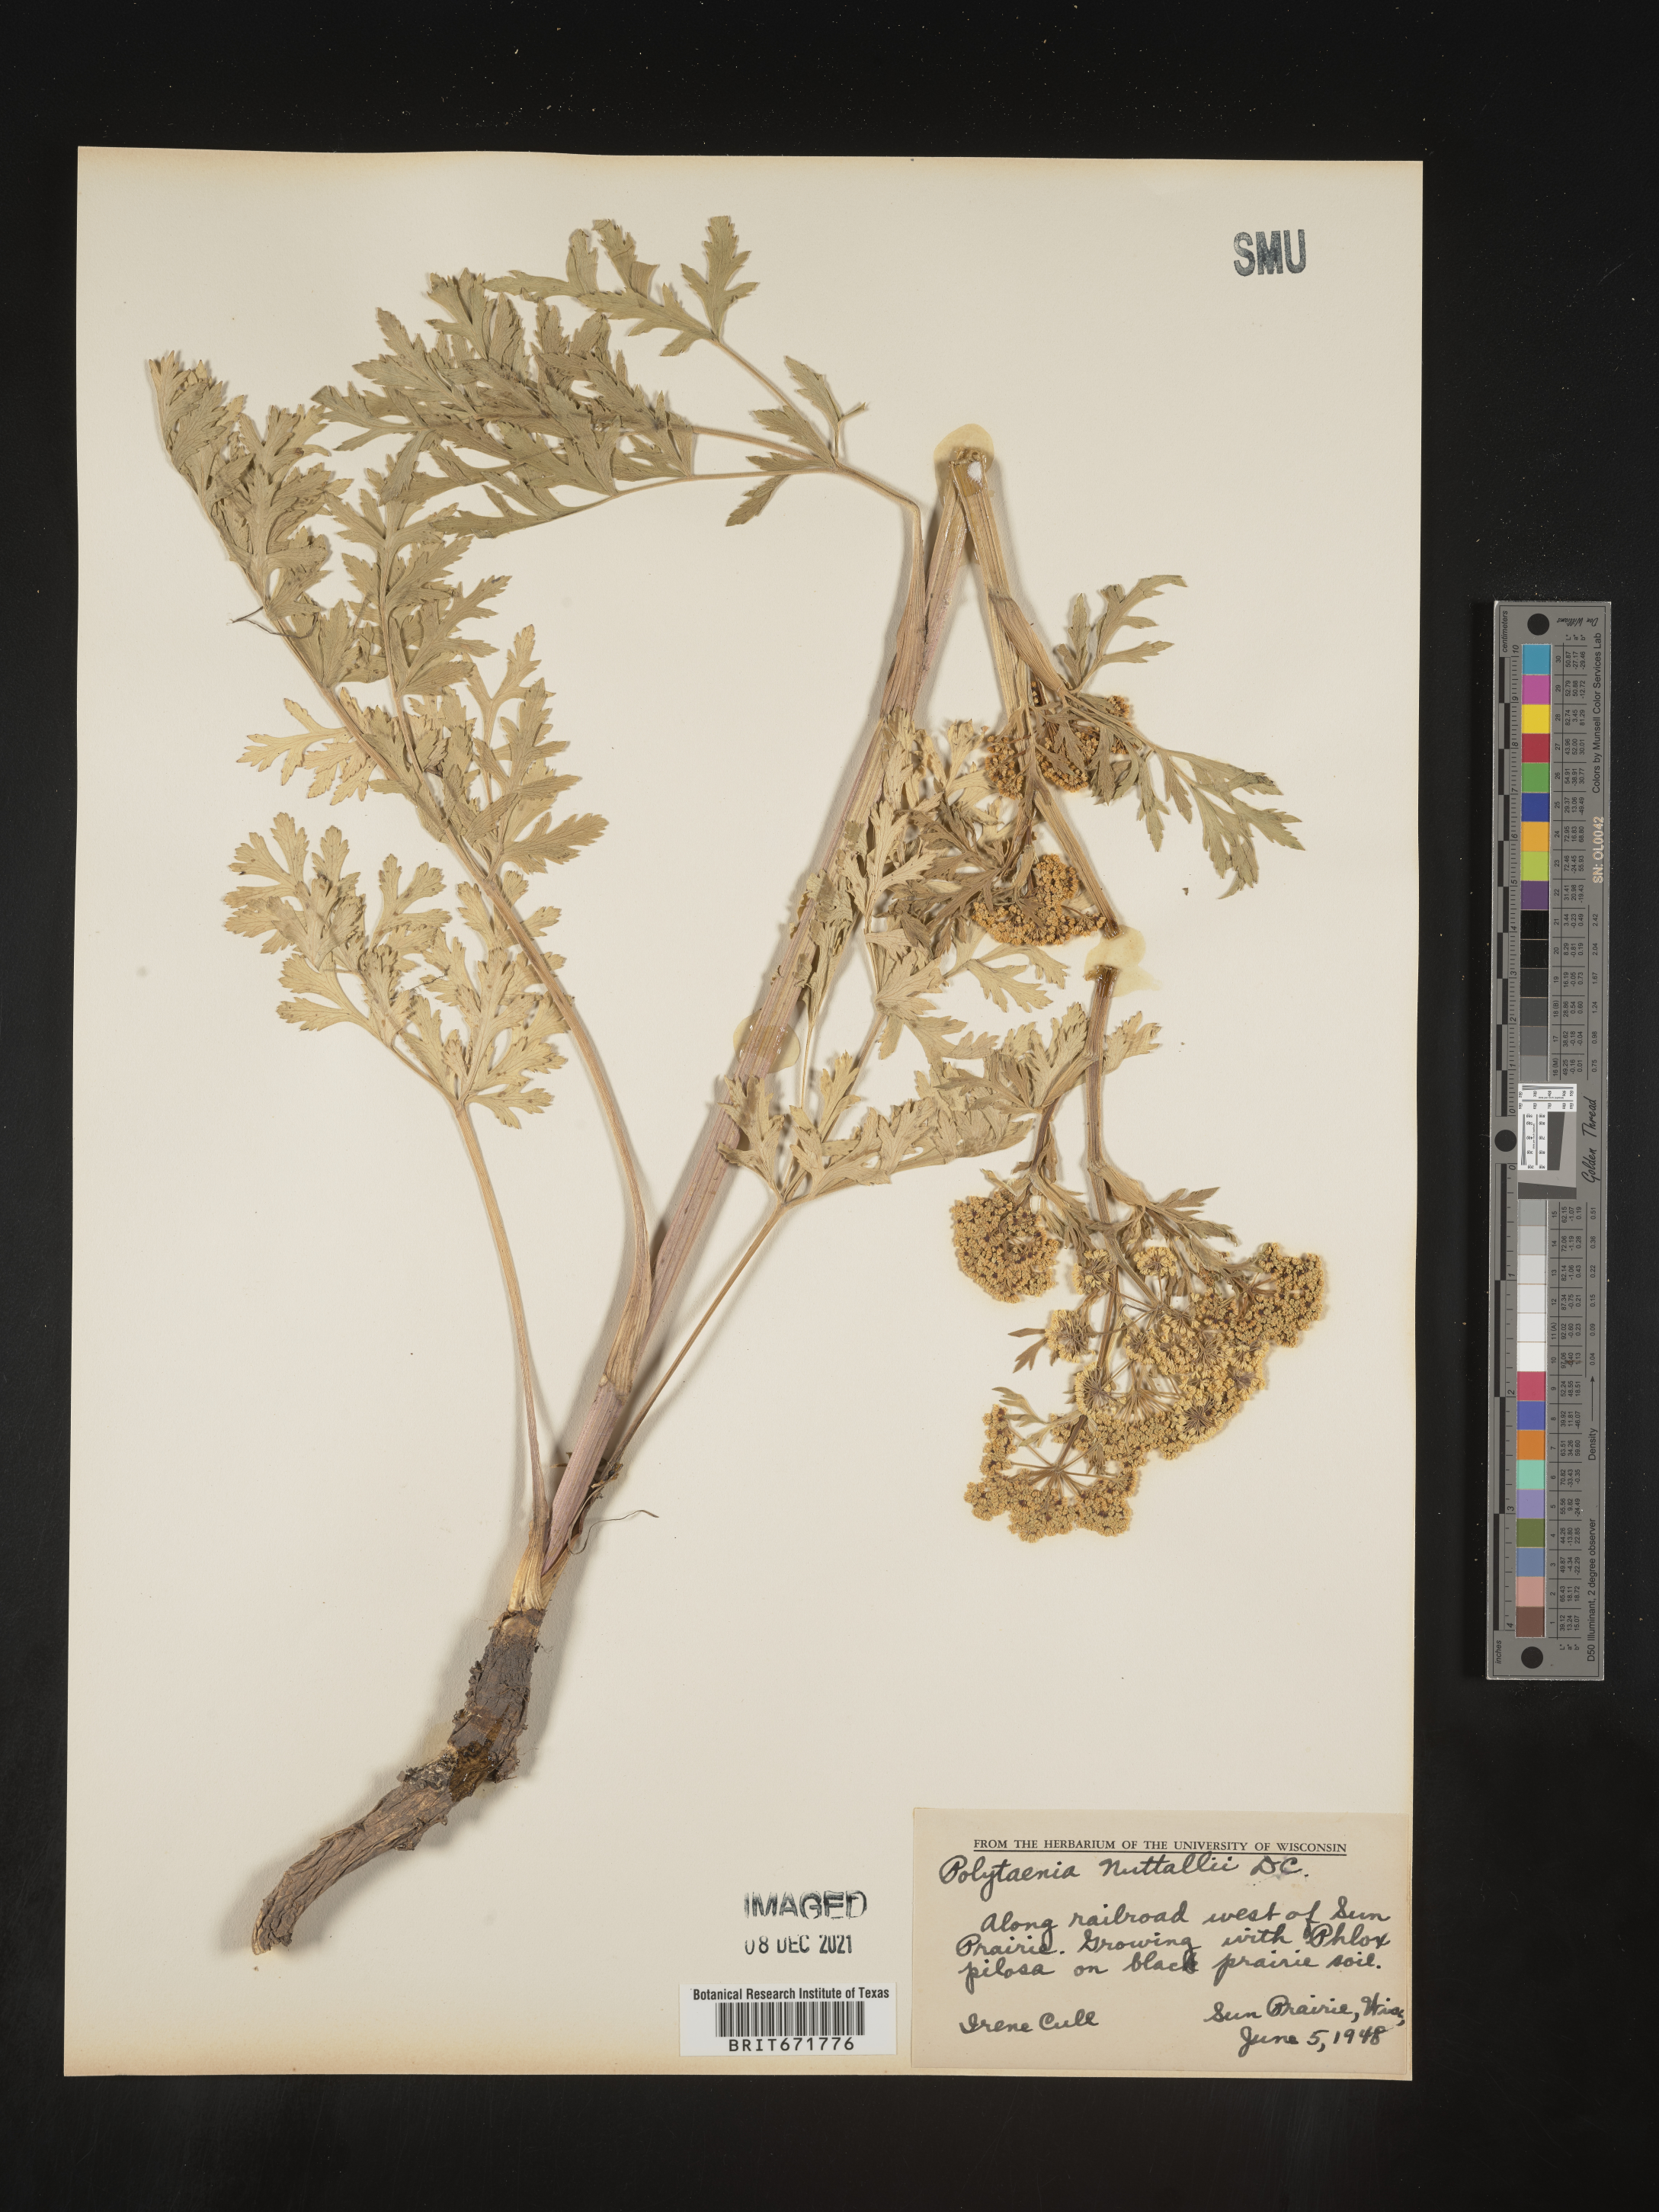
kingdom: Plantae
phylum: Tracheophyta
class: Magnoliopsida
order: Apiales
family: Apiaceae
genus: Polytaenia
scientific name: Polytaenia nuttallii
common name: Prairie-parsley
